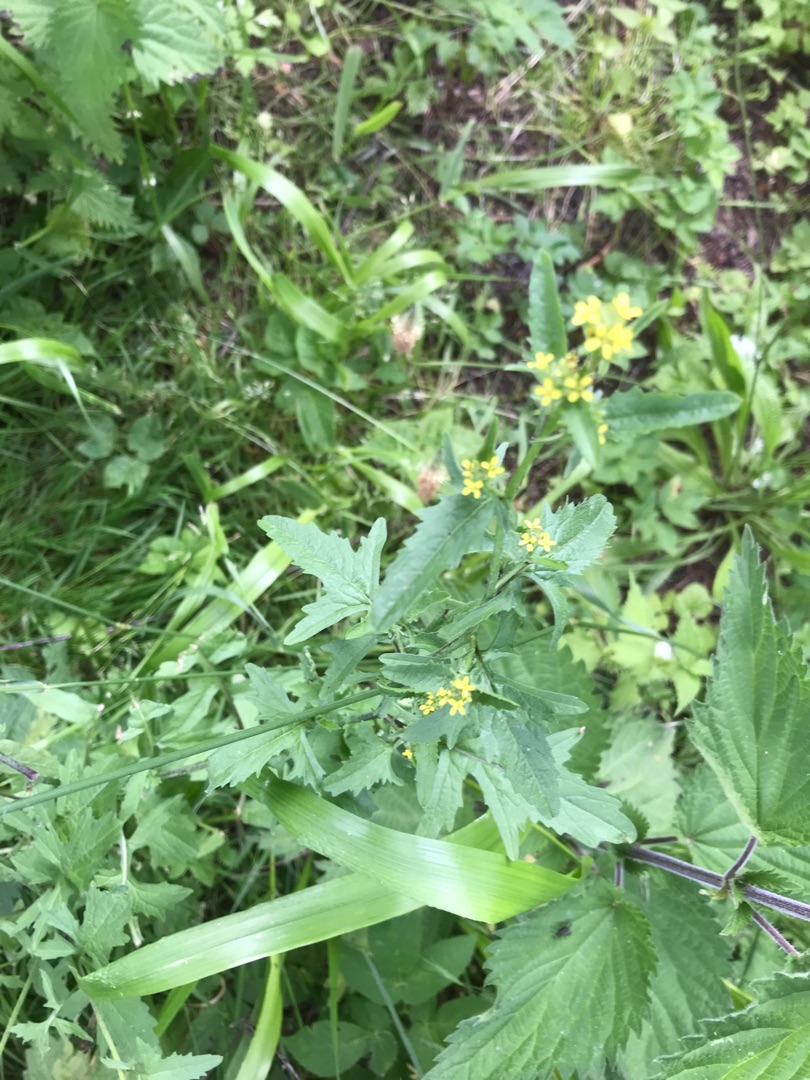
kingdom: Plantae
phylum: Tracheophyta
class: Magnoliopsida
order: Brassicales
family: Brassicaceae
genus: Sisymbrium
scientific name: Sisymbrium officinale
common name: Rank vejsennep
